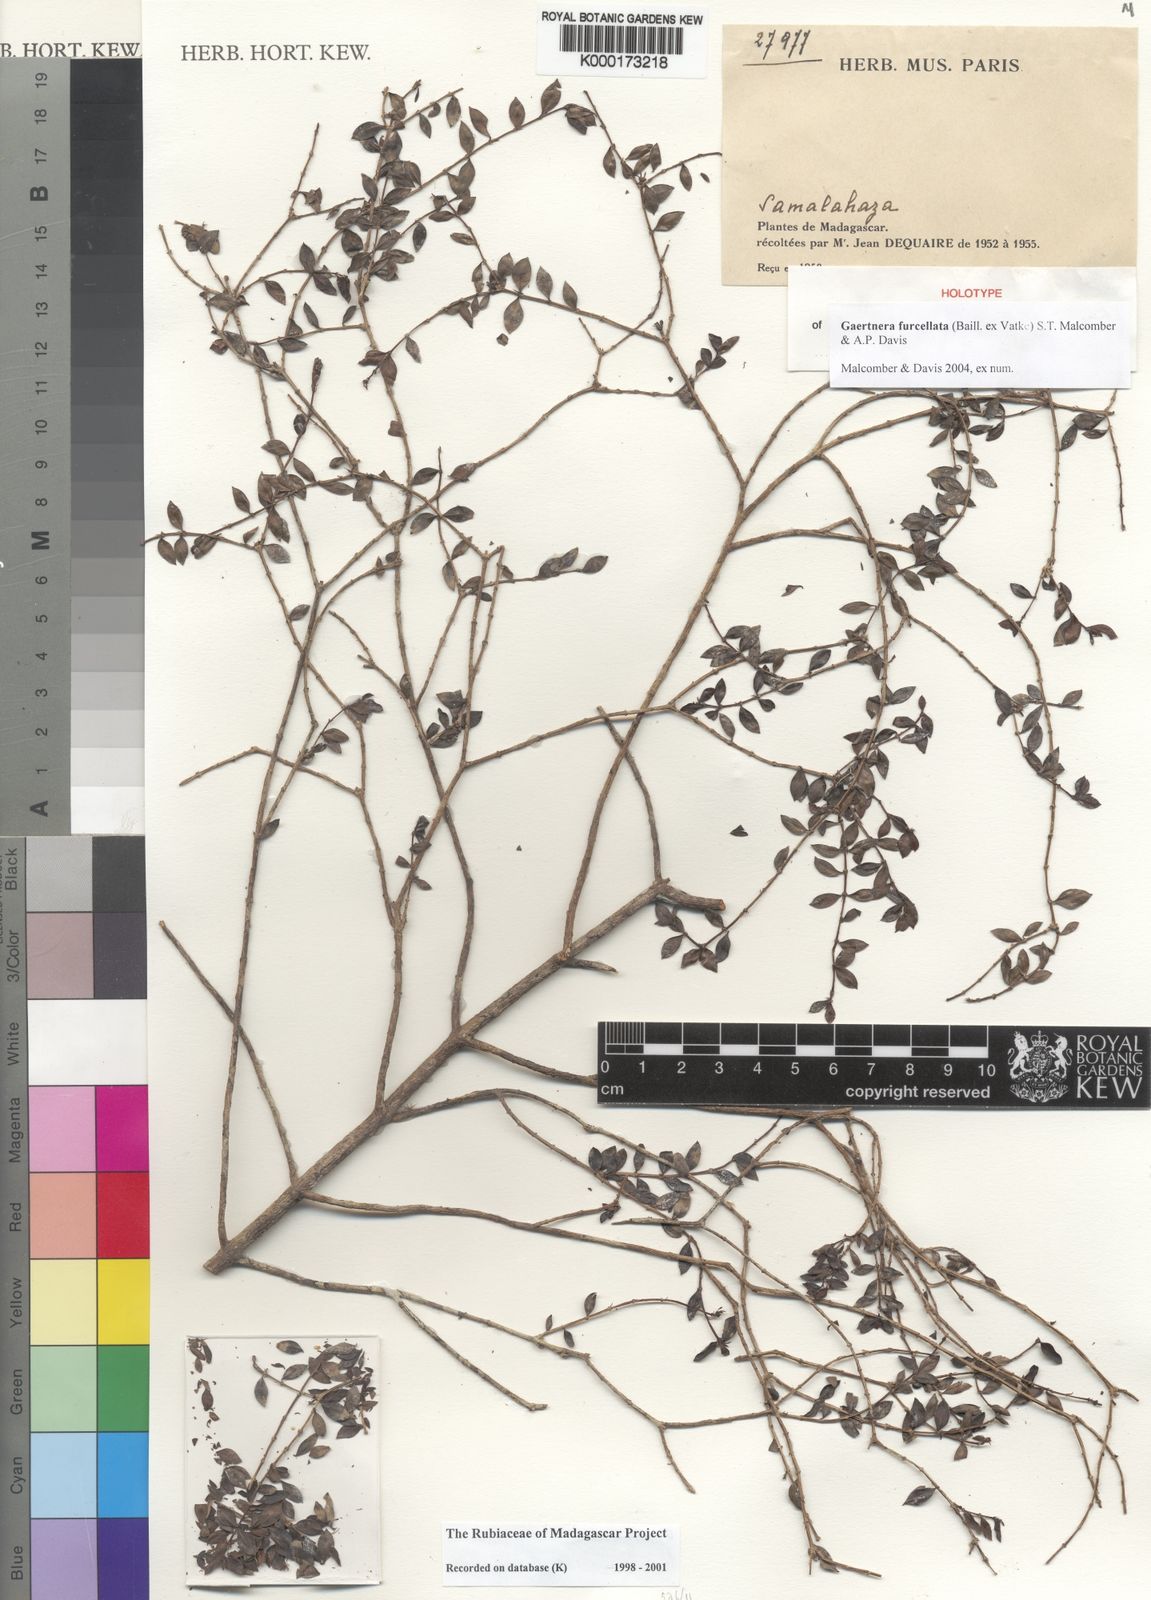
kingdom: Plantae
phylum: Tracheophyta
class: Magnoliopsida
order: Gentianales
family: Rubiaceae
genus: Gaertnera
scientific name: Gaertnera furcellata
